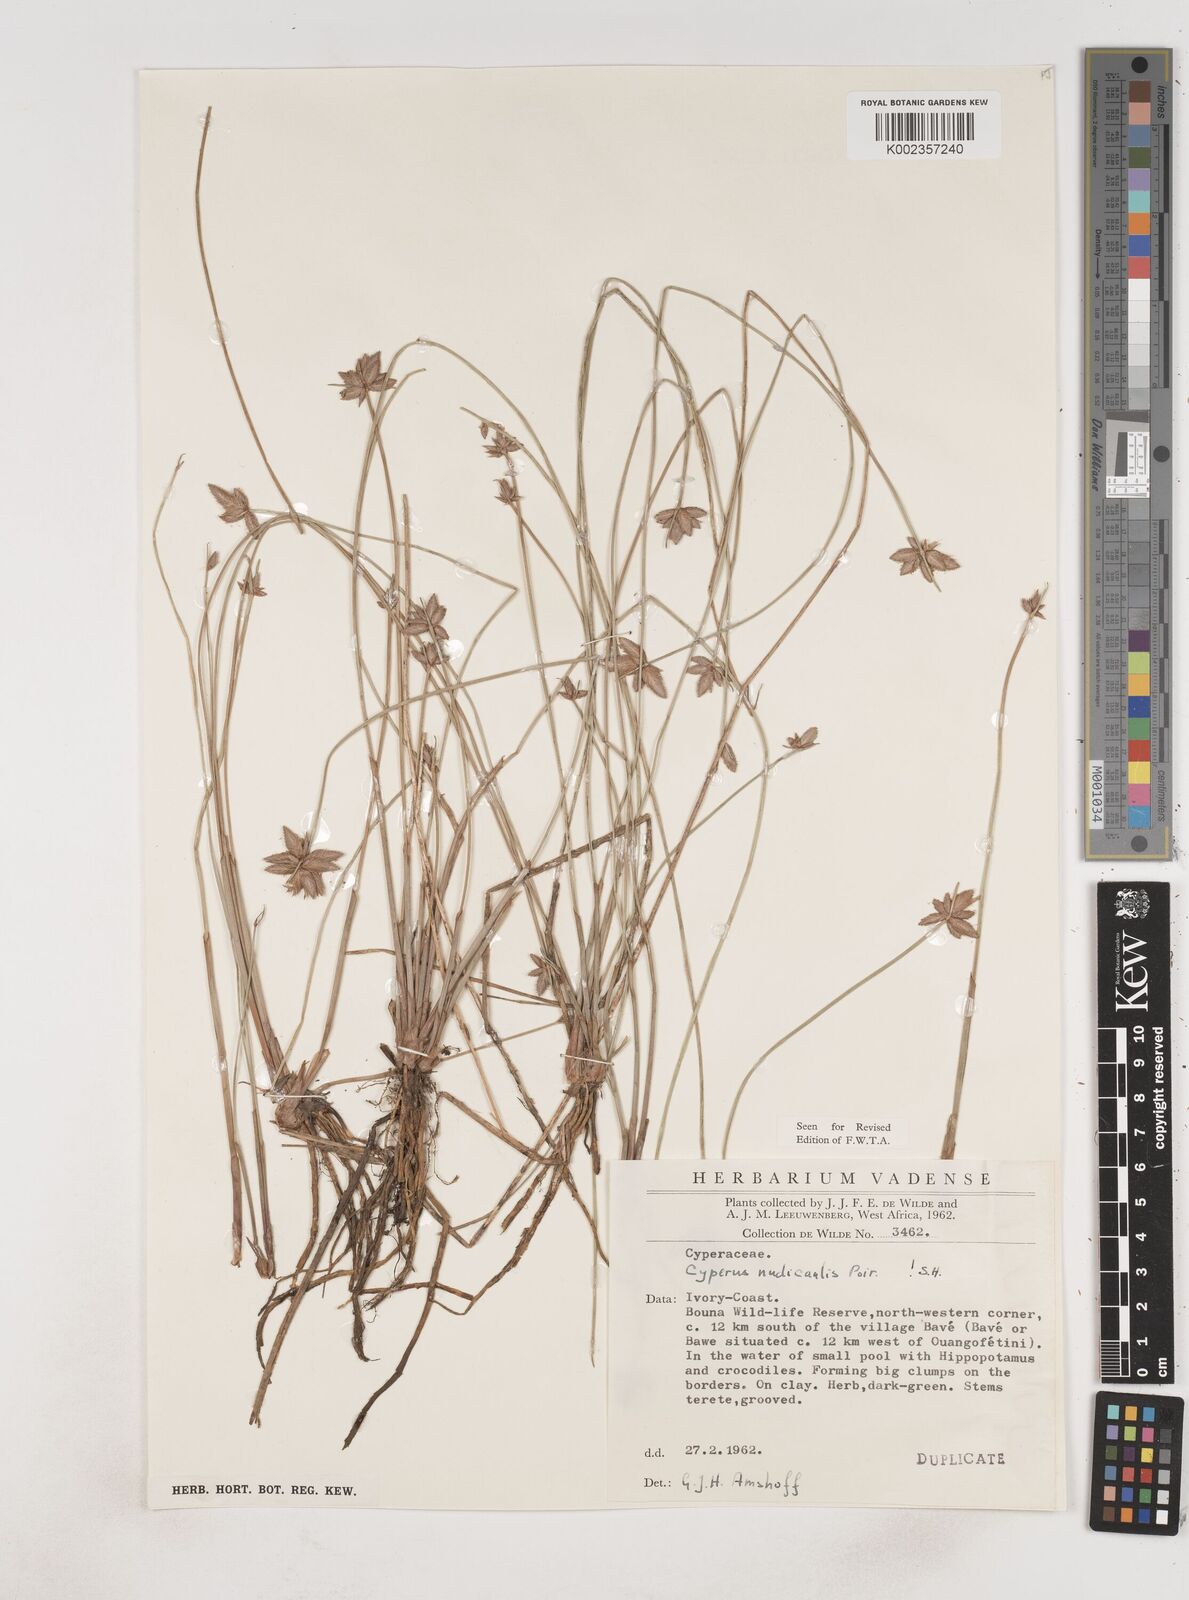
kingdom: Plantae
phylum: Tracheophyta
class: Liliopsida
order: Poales
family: Cyperaceae
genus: Cyperus
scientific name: Cyperus pectinatus
